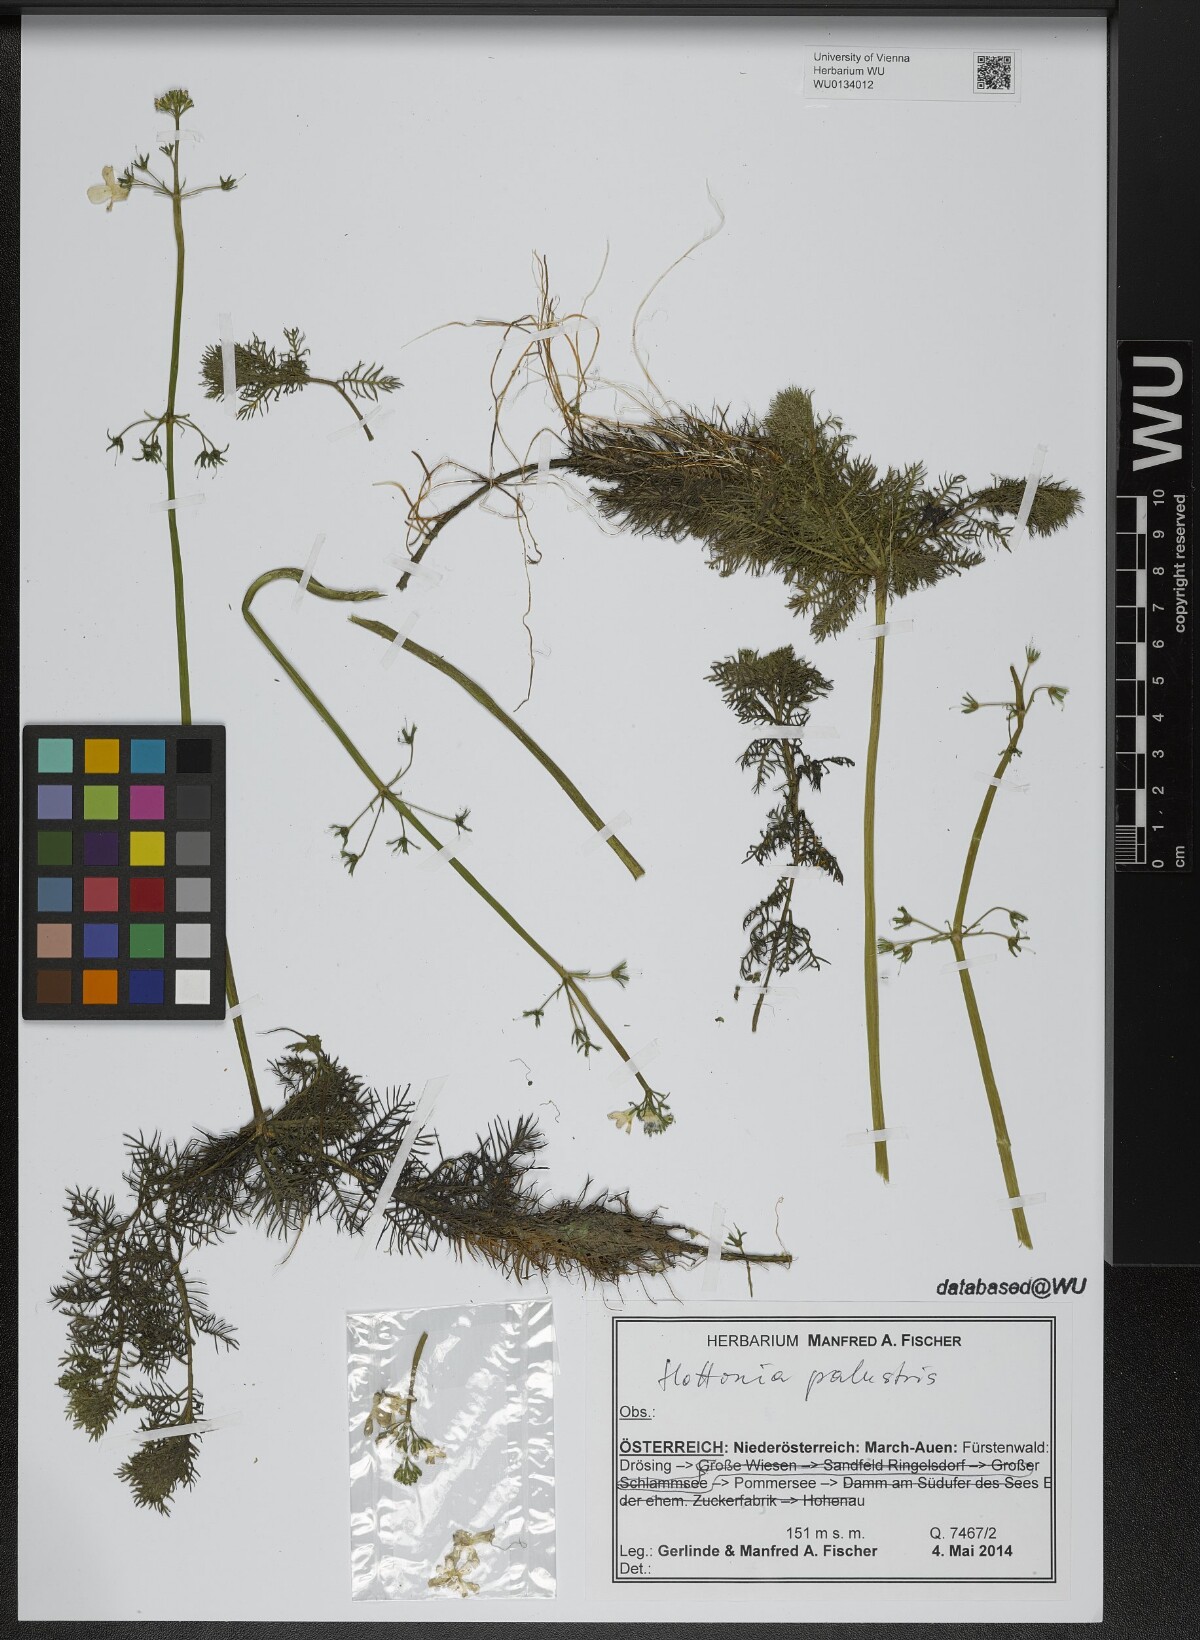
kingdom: Plantae
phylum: Tracheophyta
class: Magnoliopsida
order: Ericales
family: Primulaceae
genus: Hottonia
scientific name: Hottonia palustris
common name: Water-violet
